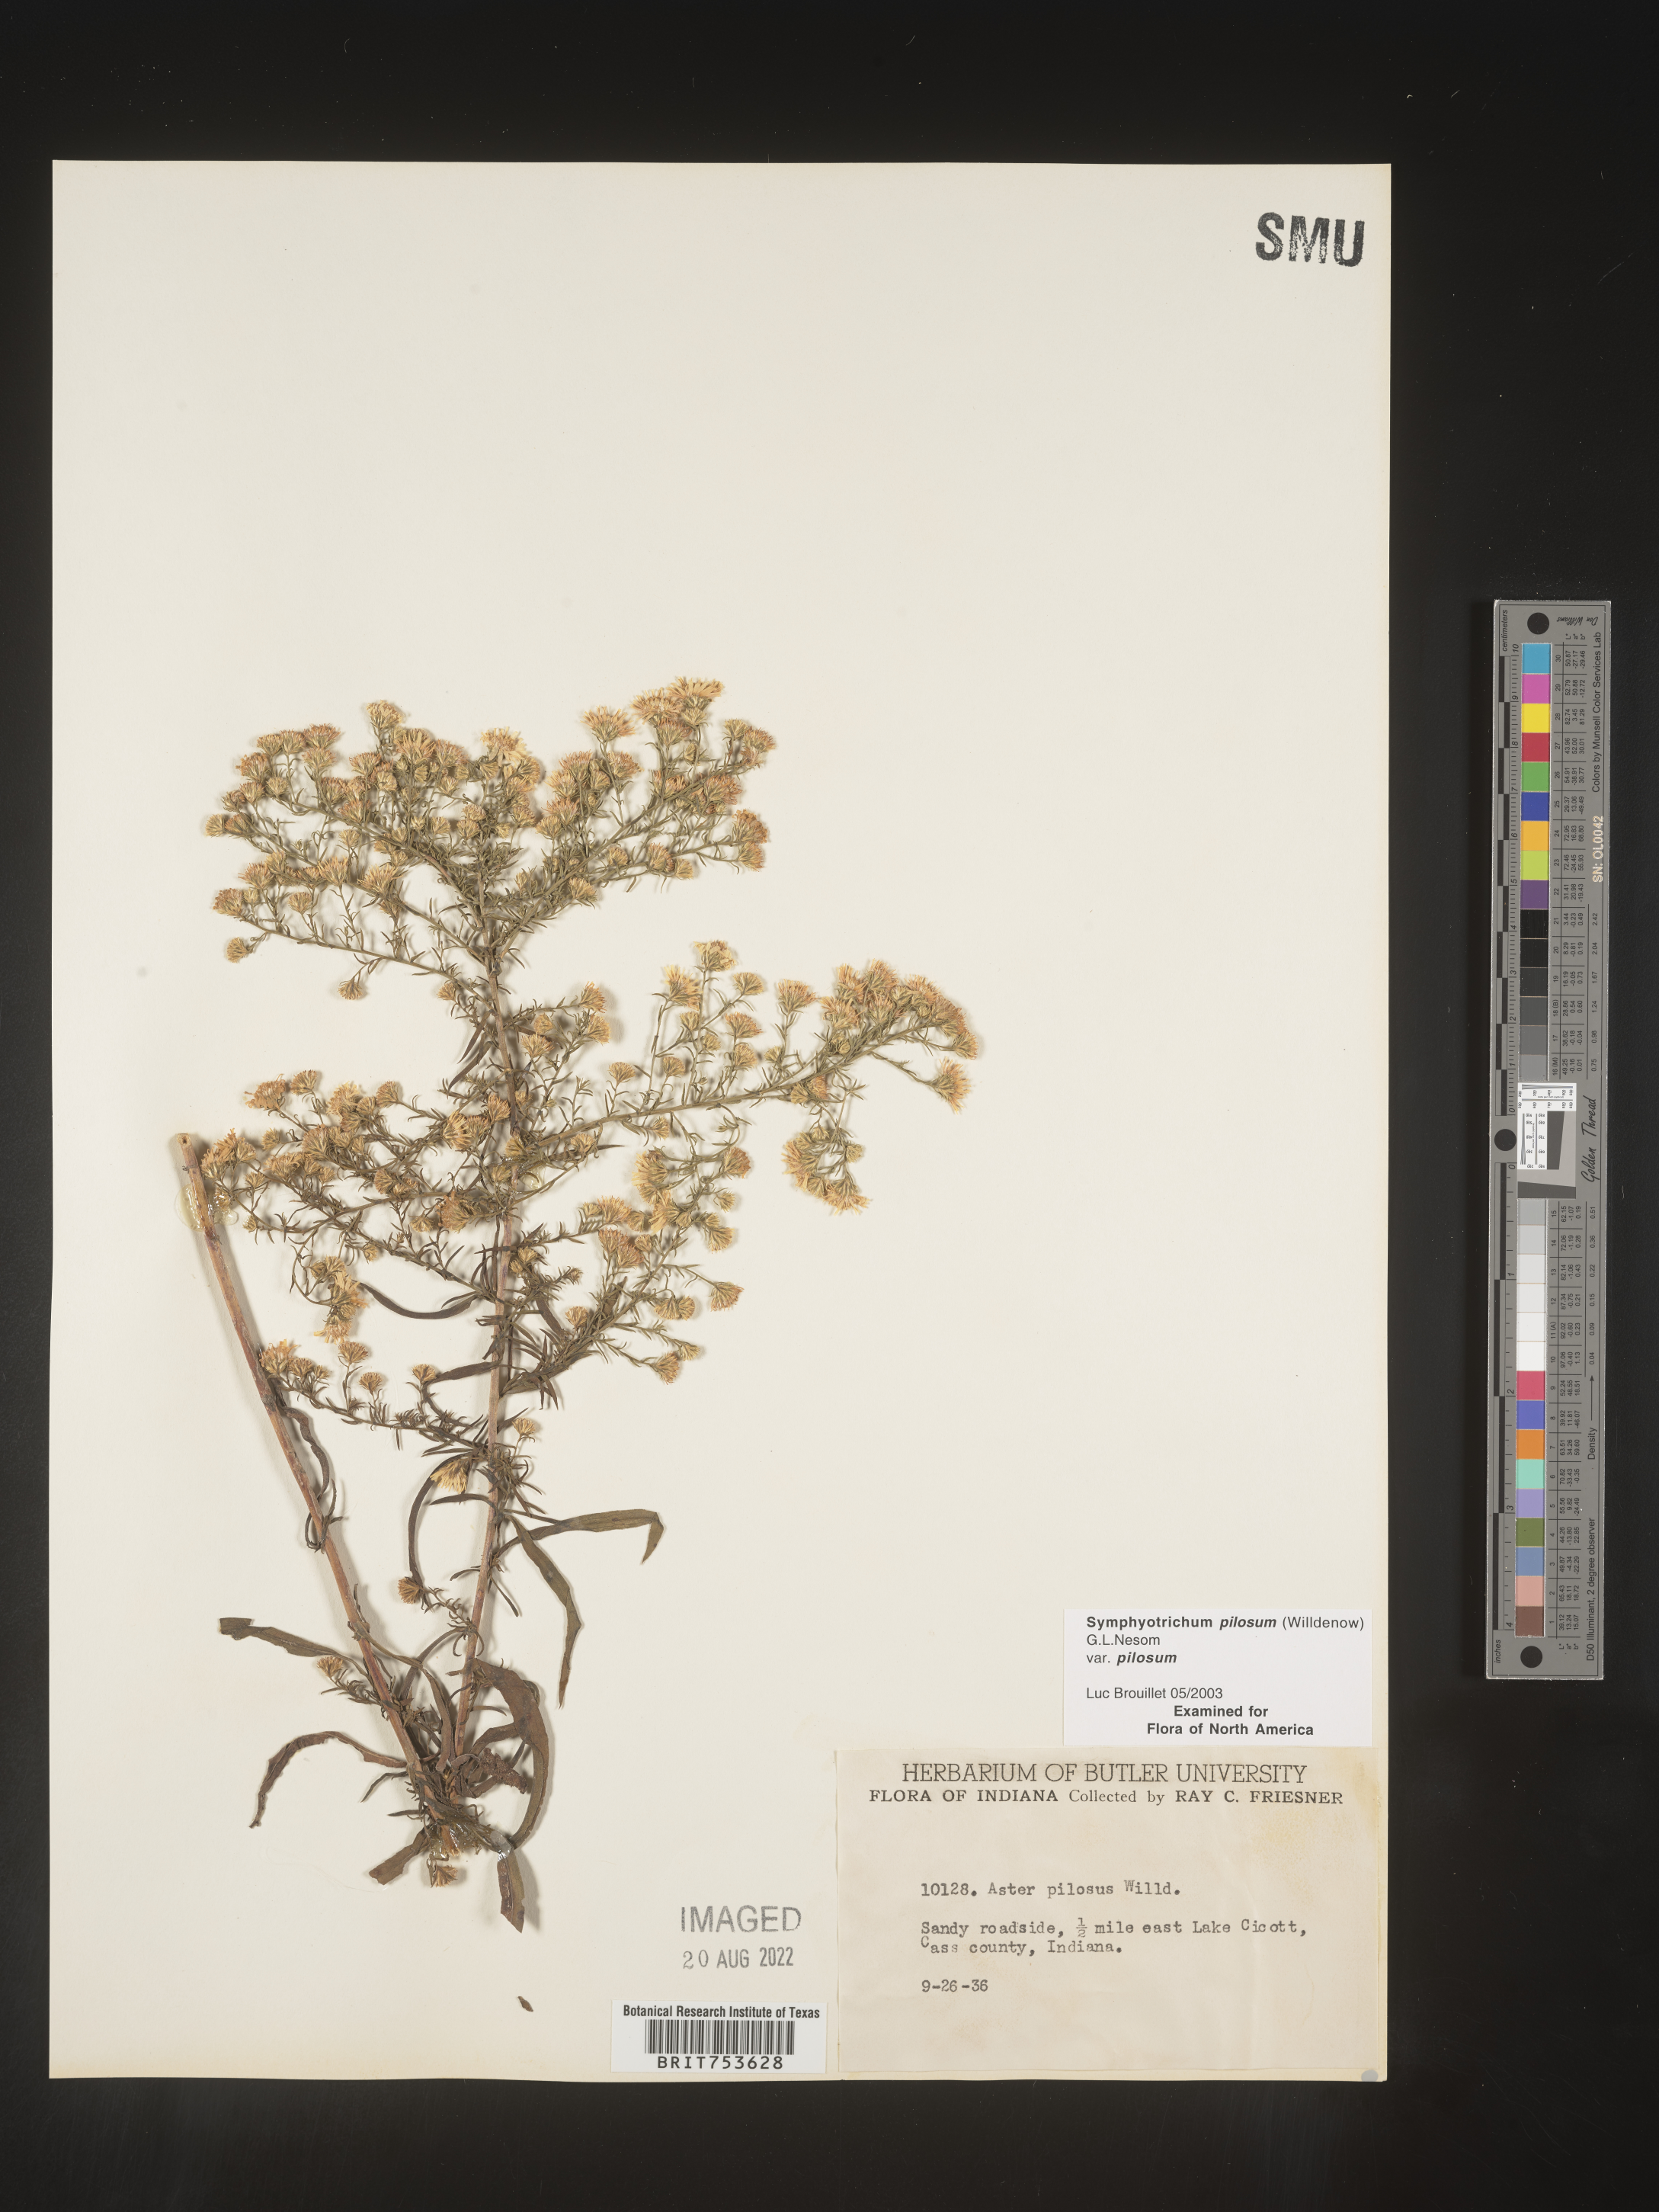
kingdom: Plantae
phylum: Tracheophyta
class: Magnoliopsida
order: Asterales
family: Asteraceae
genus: Symphyotrichum
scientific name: Symphyotrichum pilosum
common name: Awl aster
